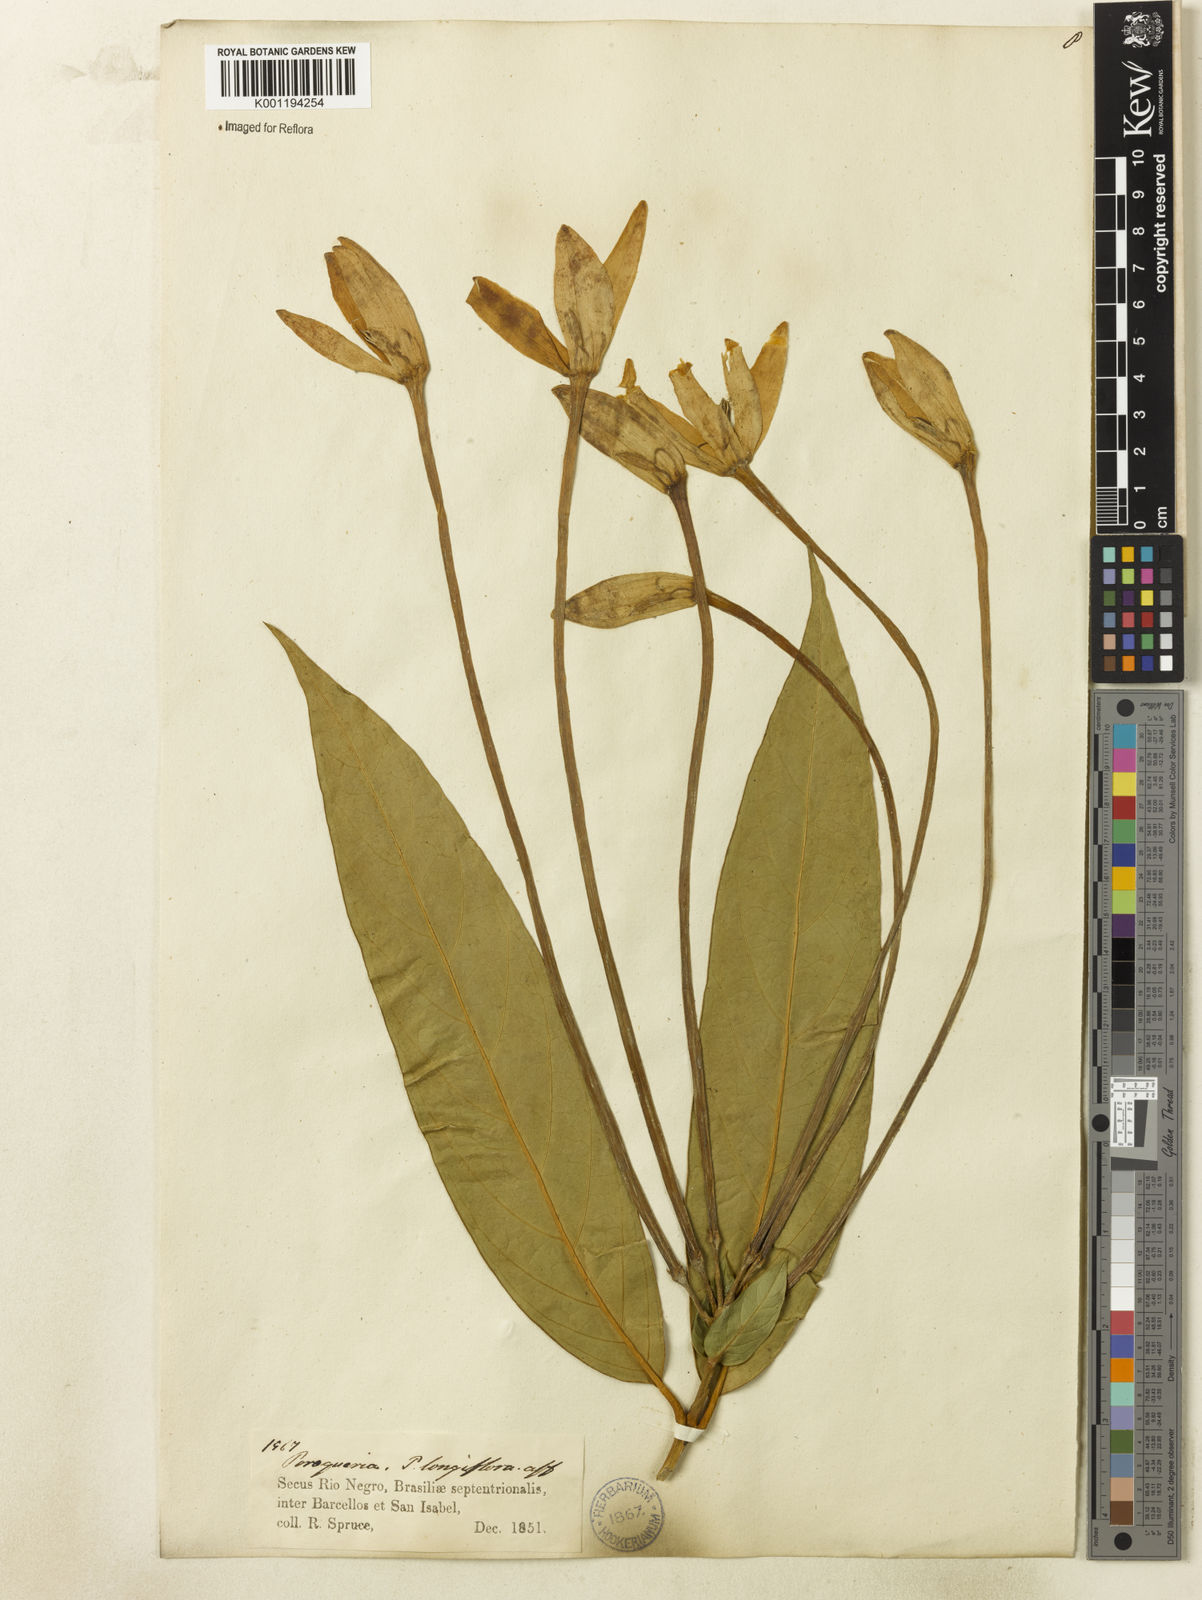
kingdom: Plantae
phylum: Tracheophyta
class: Magnoliopsida
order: Gentianales
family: Rubiaceae
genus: Posoqueria
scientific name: Posoqueria longiflora
